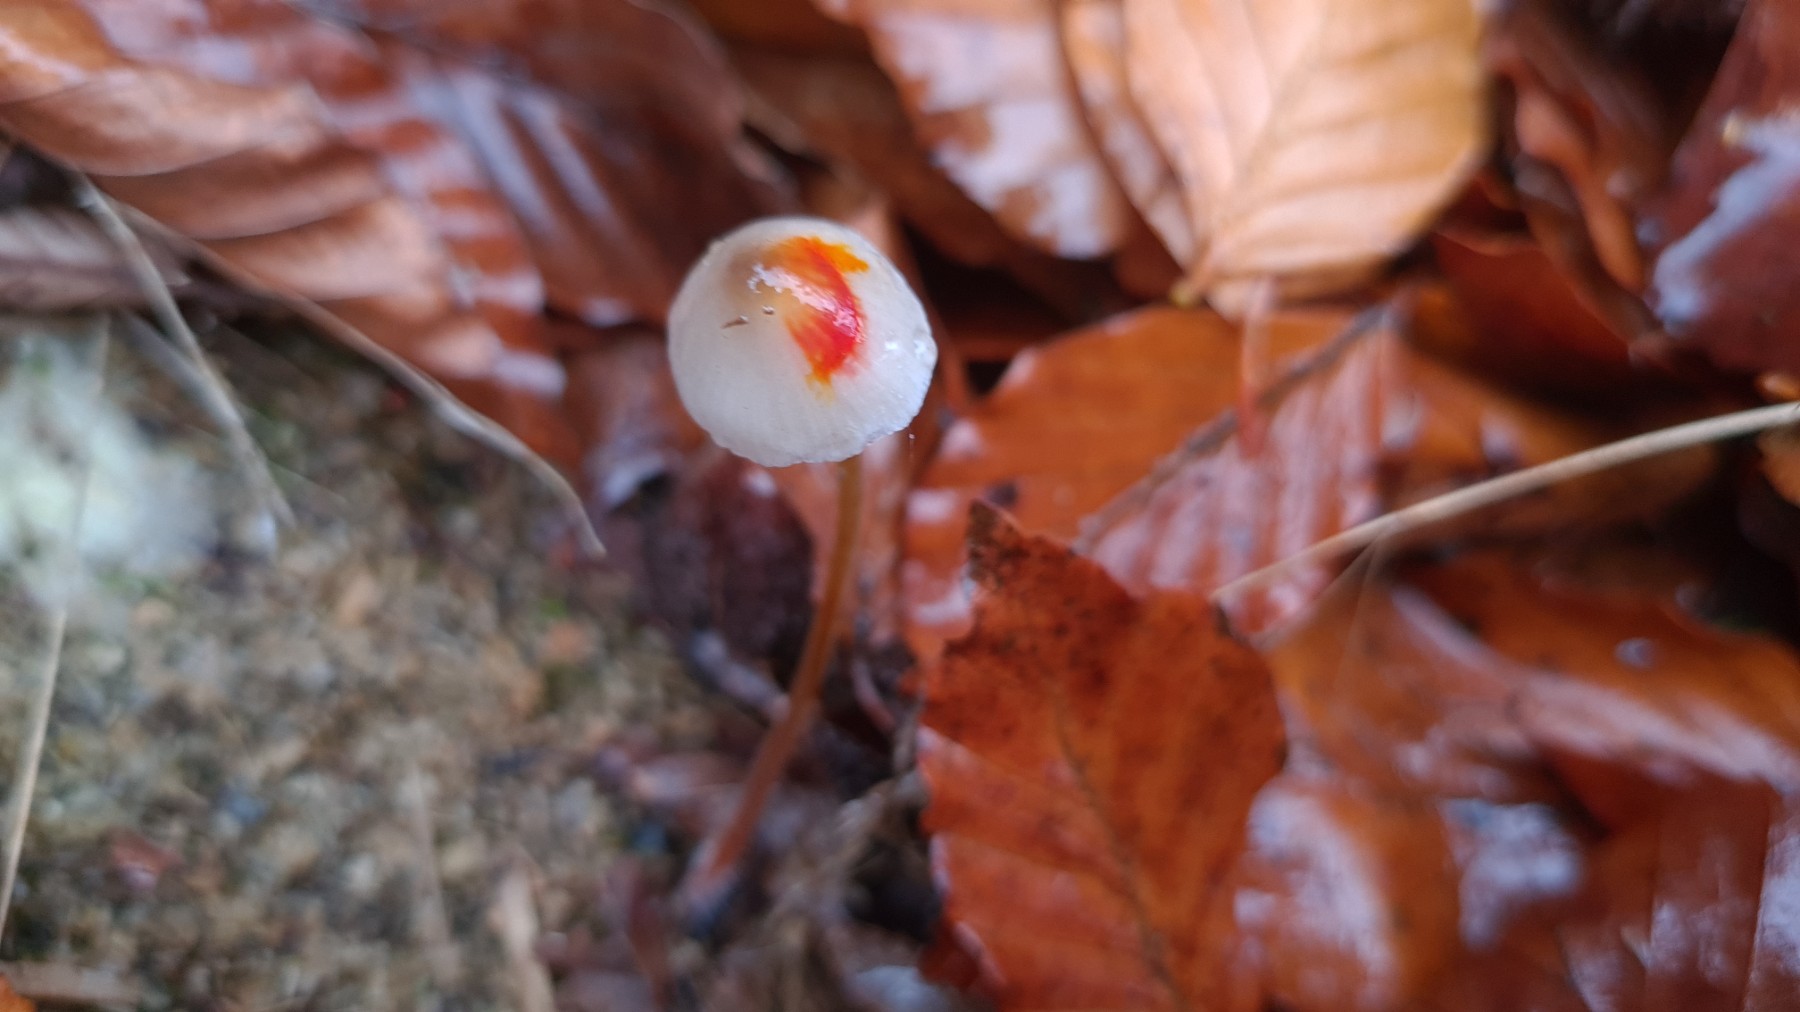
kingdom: Fungi
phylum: Basidiomycota
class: Agaricomycetes
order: Agaricales
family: Mycenaceae
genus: Mycena
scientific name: Mycena crocata
